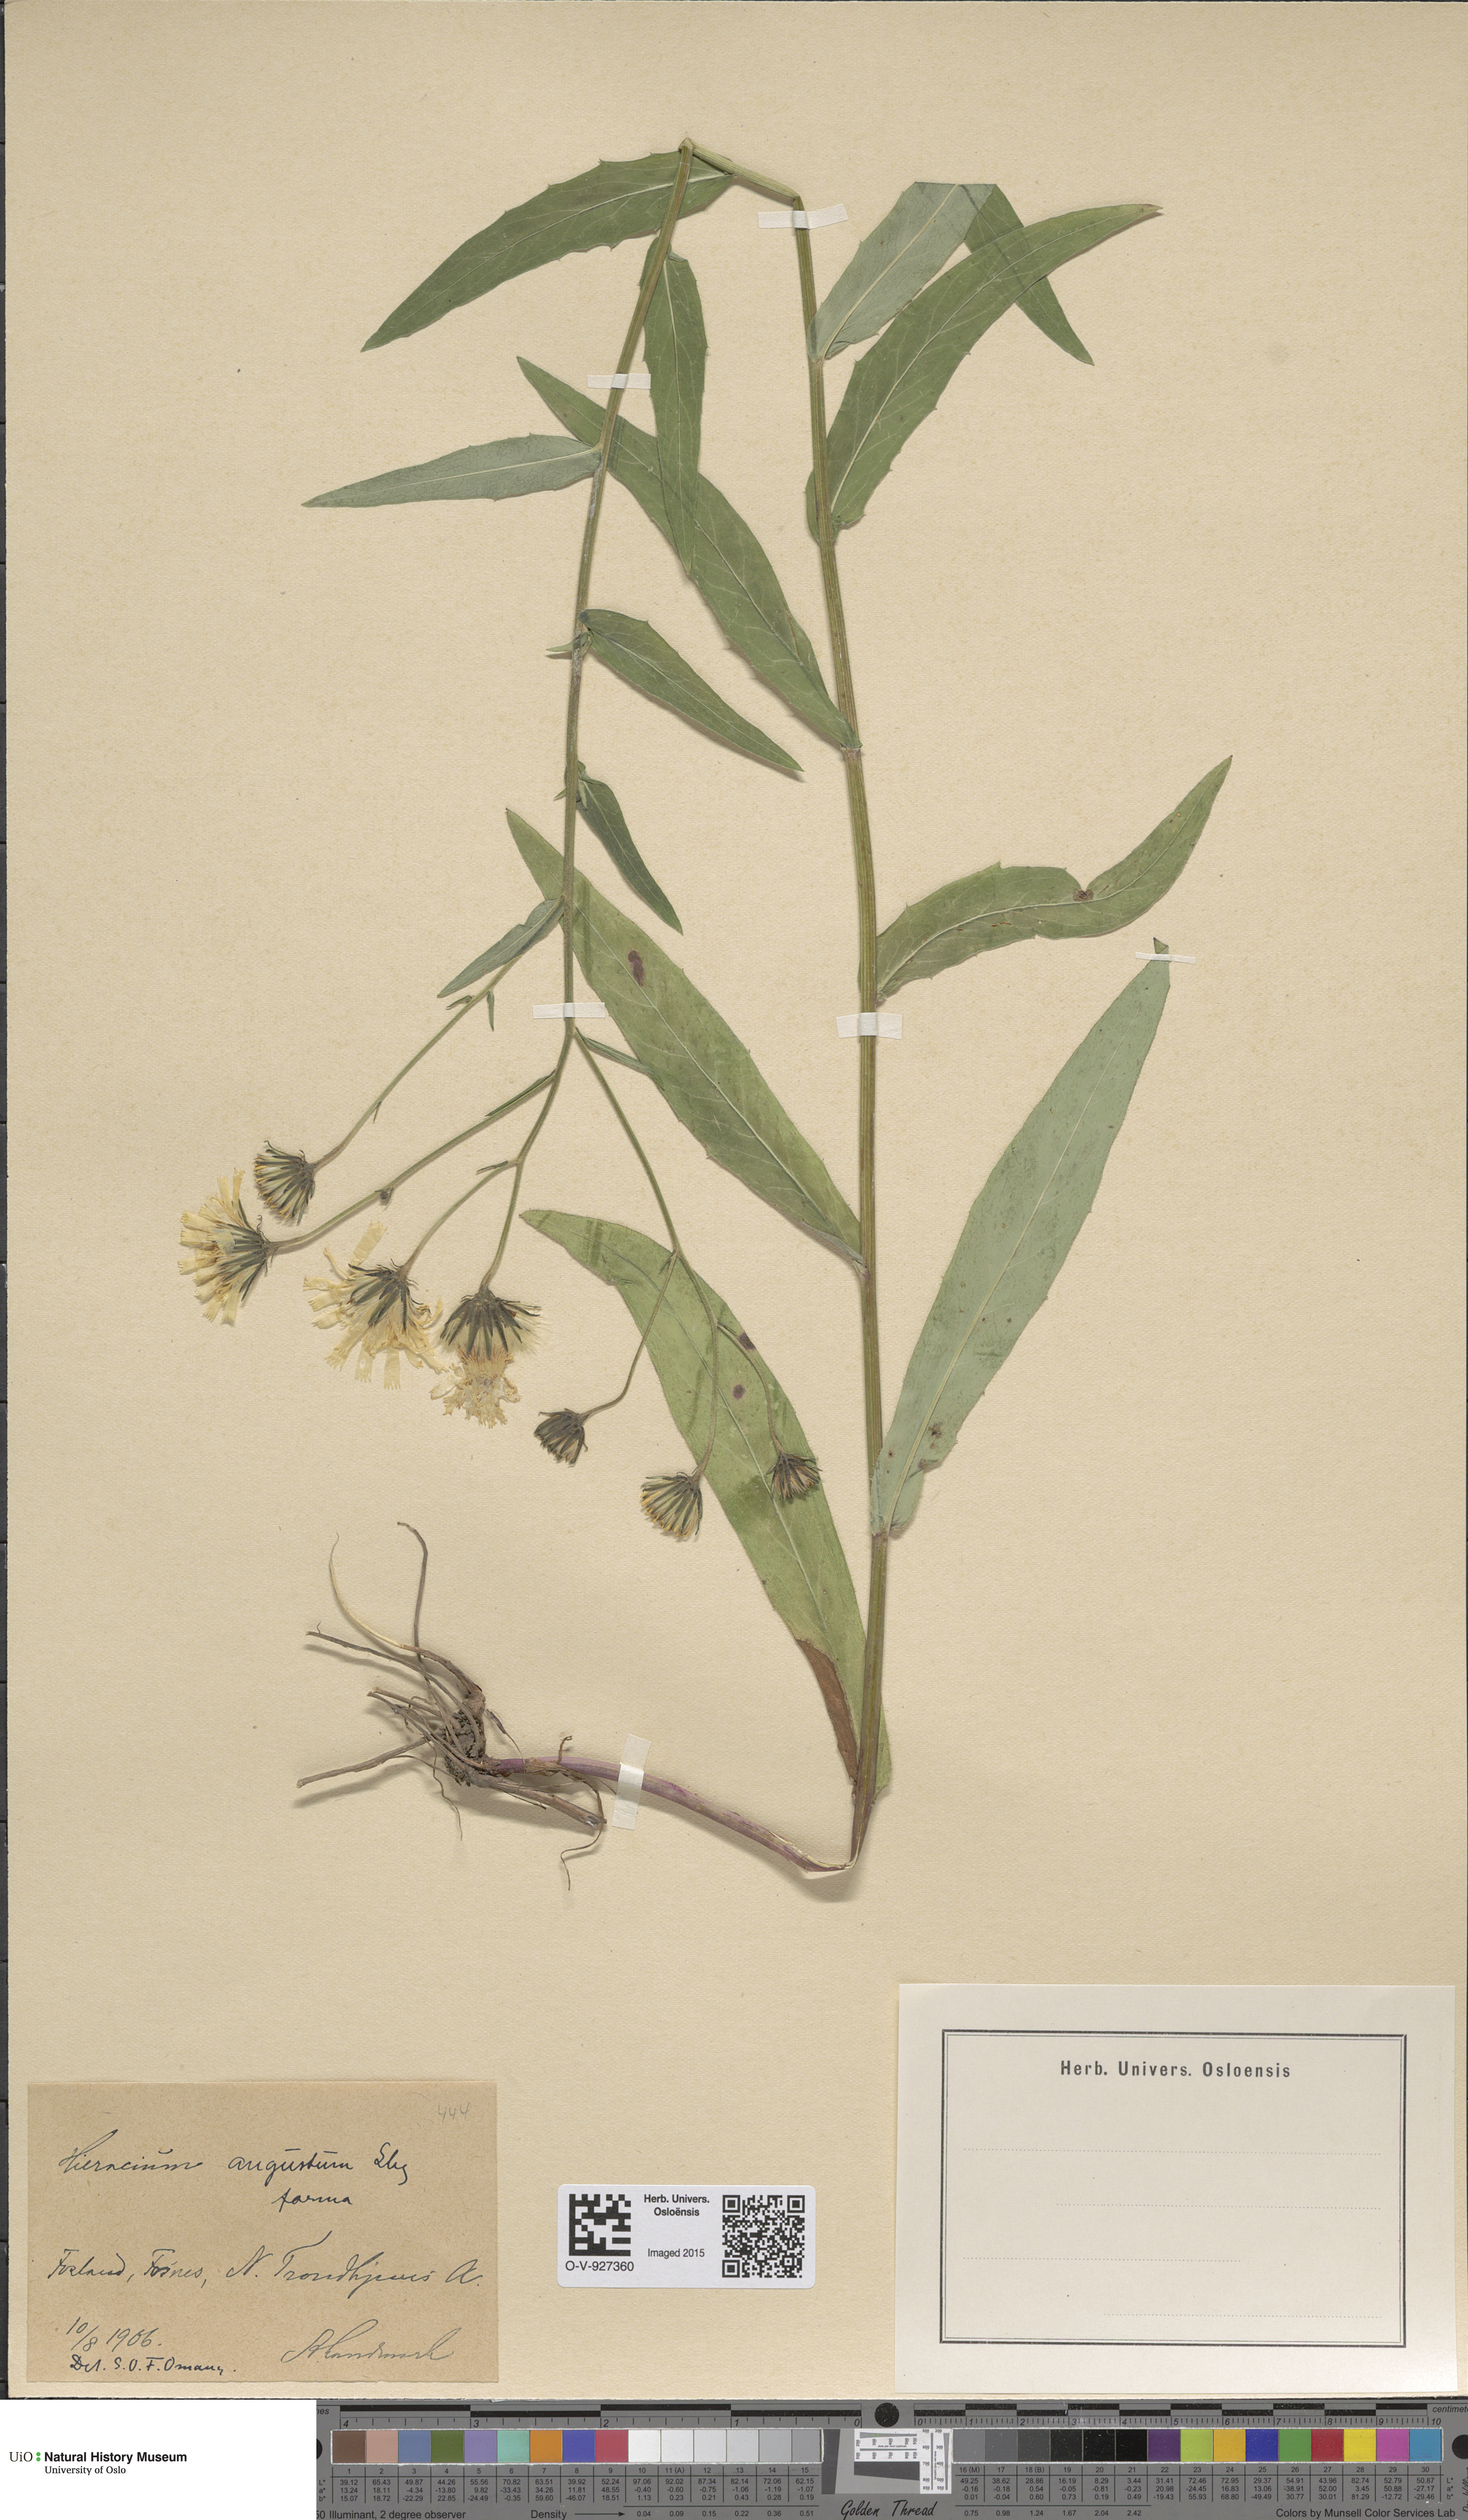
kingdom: Plantae
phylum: Tracheophyta
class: Magnoliopsida
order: Asterales
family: Asteraceae
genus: Hieracium
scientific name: Hieracium angustum
